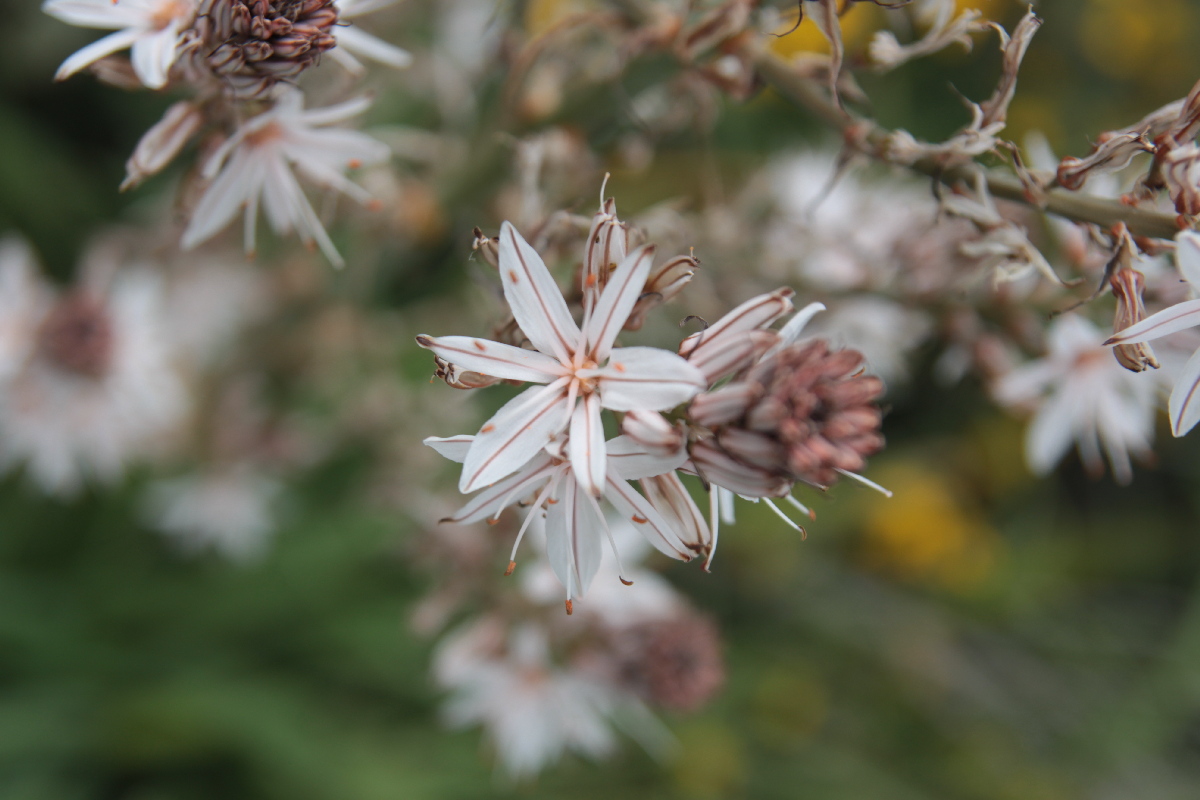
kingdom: Plantae
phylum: Tracheophyta
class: Liliopsida
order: Asparagales
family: Asphodelaceae
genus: Asphodelus
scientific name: Asphodelus ramosus
